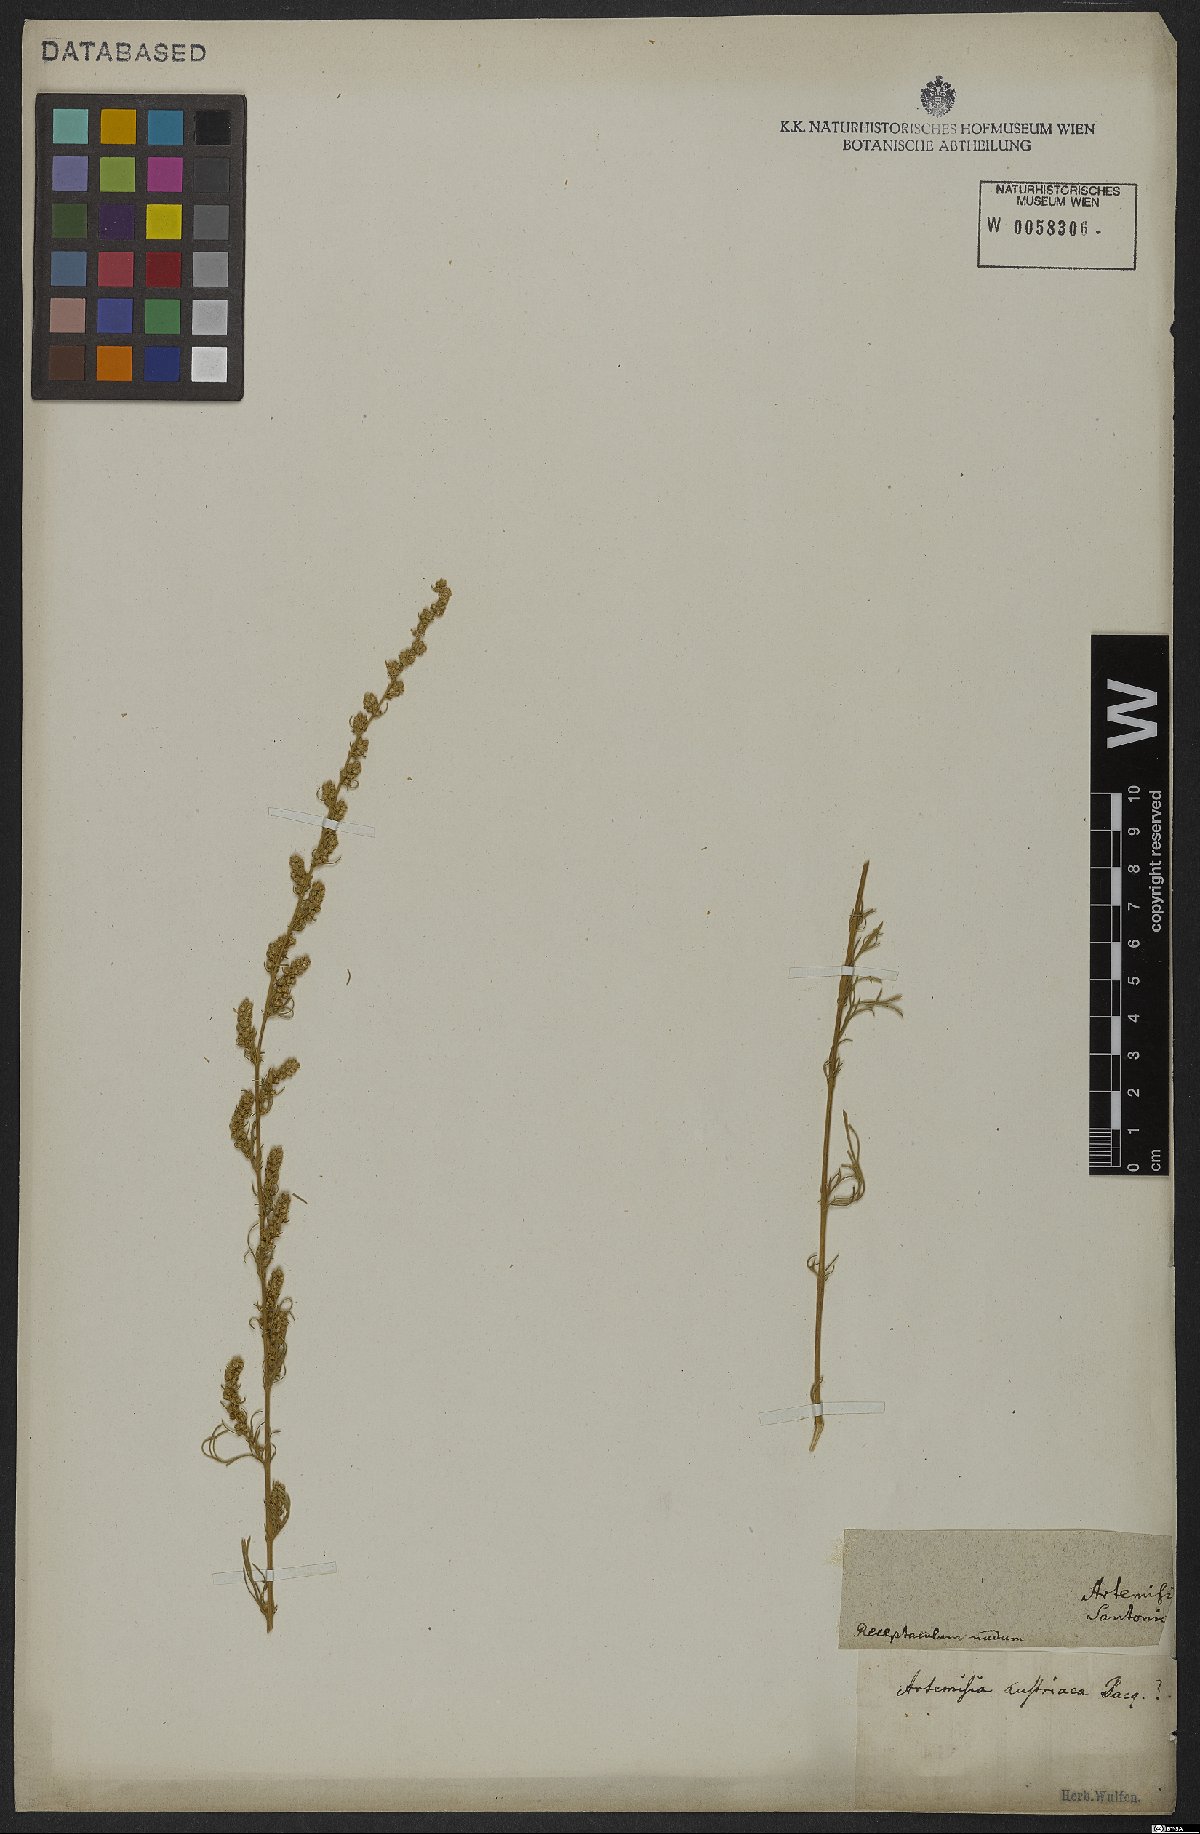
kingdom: Plantae
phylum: Tracheophyta
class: Magnoliopsida
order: Asterales
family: Asteraceae
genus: Artemisia
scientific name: Artemisia austriaca
